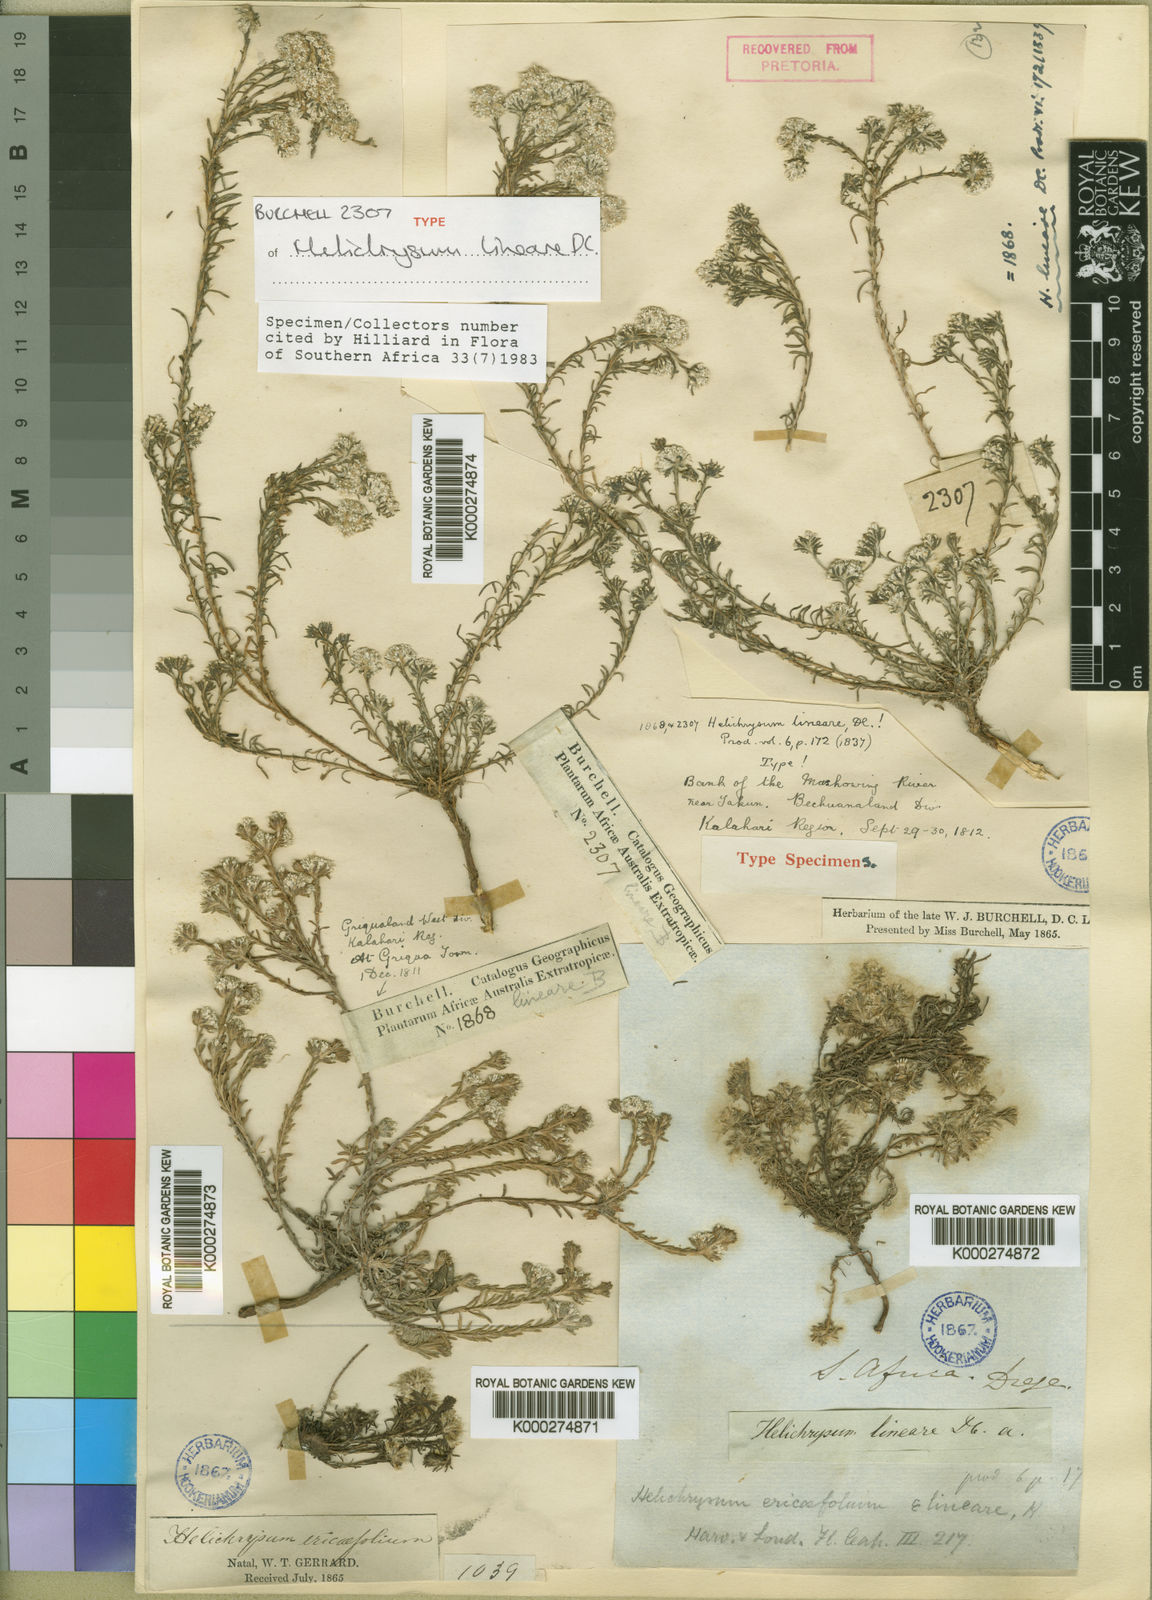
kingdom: Plantae
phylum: Tracheophyta
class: Magnoliopsida
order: Asterales
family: Asteraceae
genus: Helichrysum
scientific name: Helichrysum lineare
